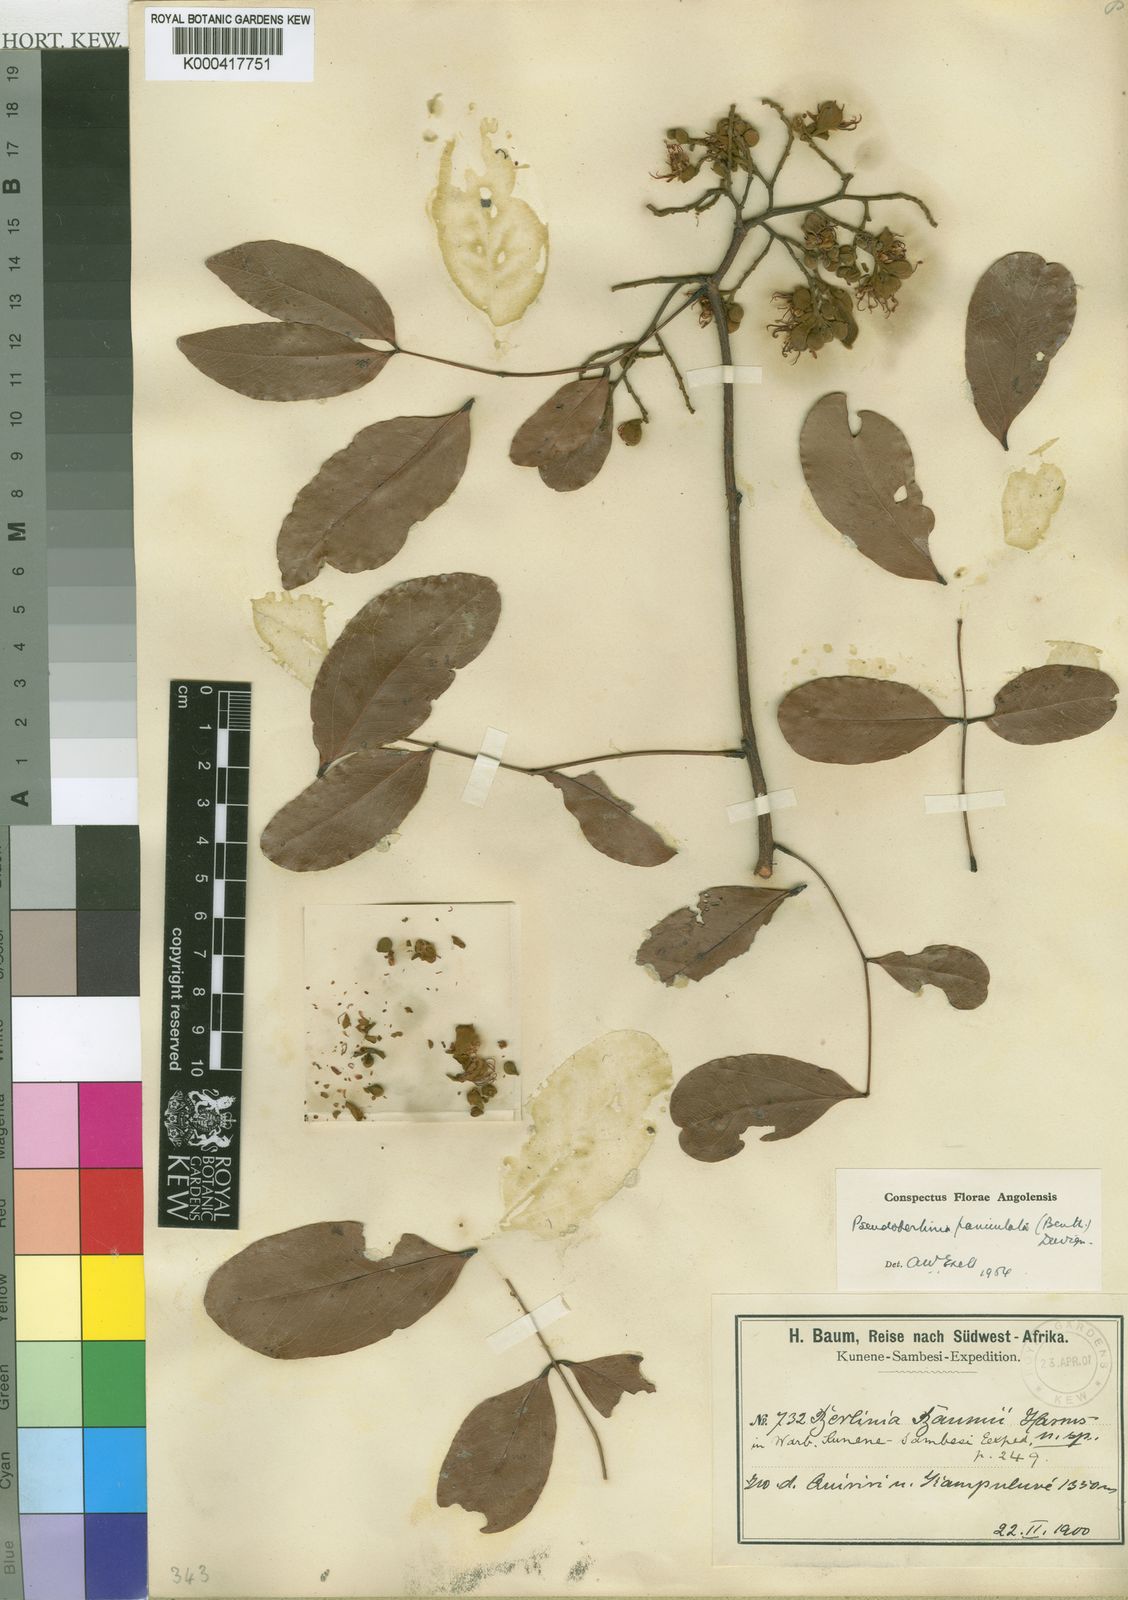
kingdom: Plantae
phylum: Tracheophyta
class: Magnoliopsida
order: Fabales
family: Fabaceae
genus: Julbernardia
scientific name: Julbernardia paniculata
